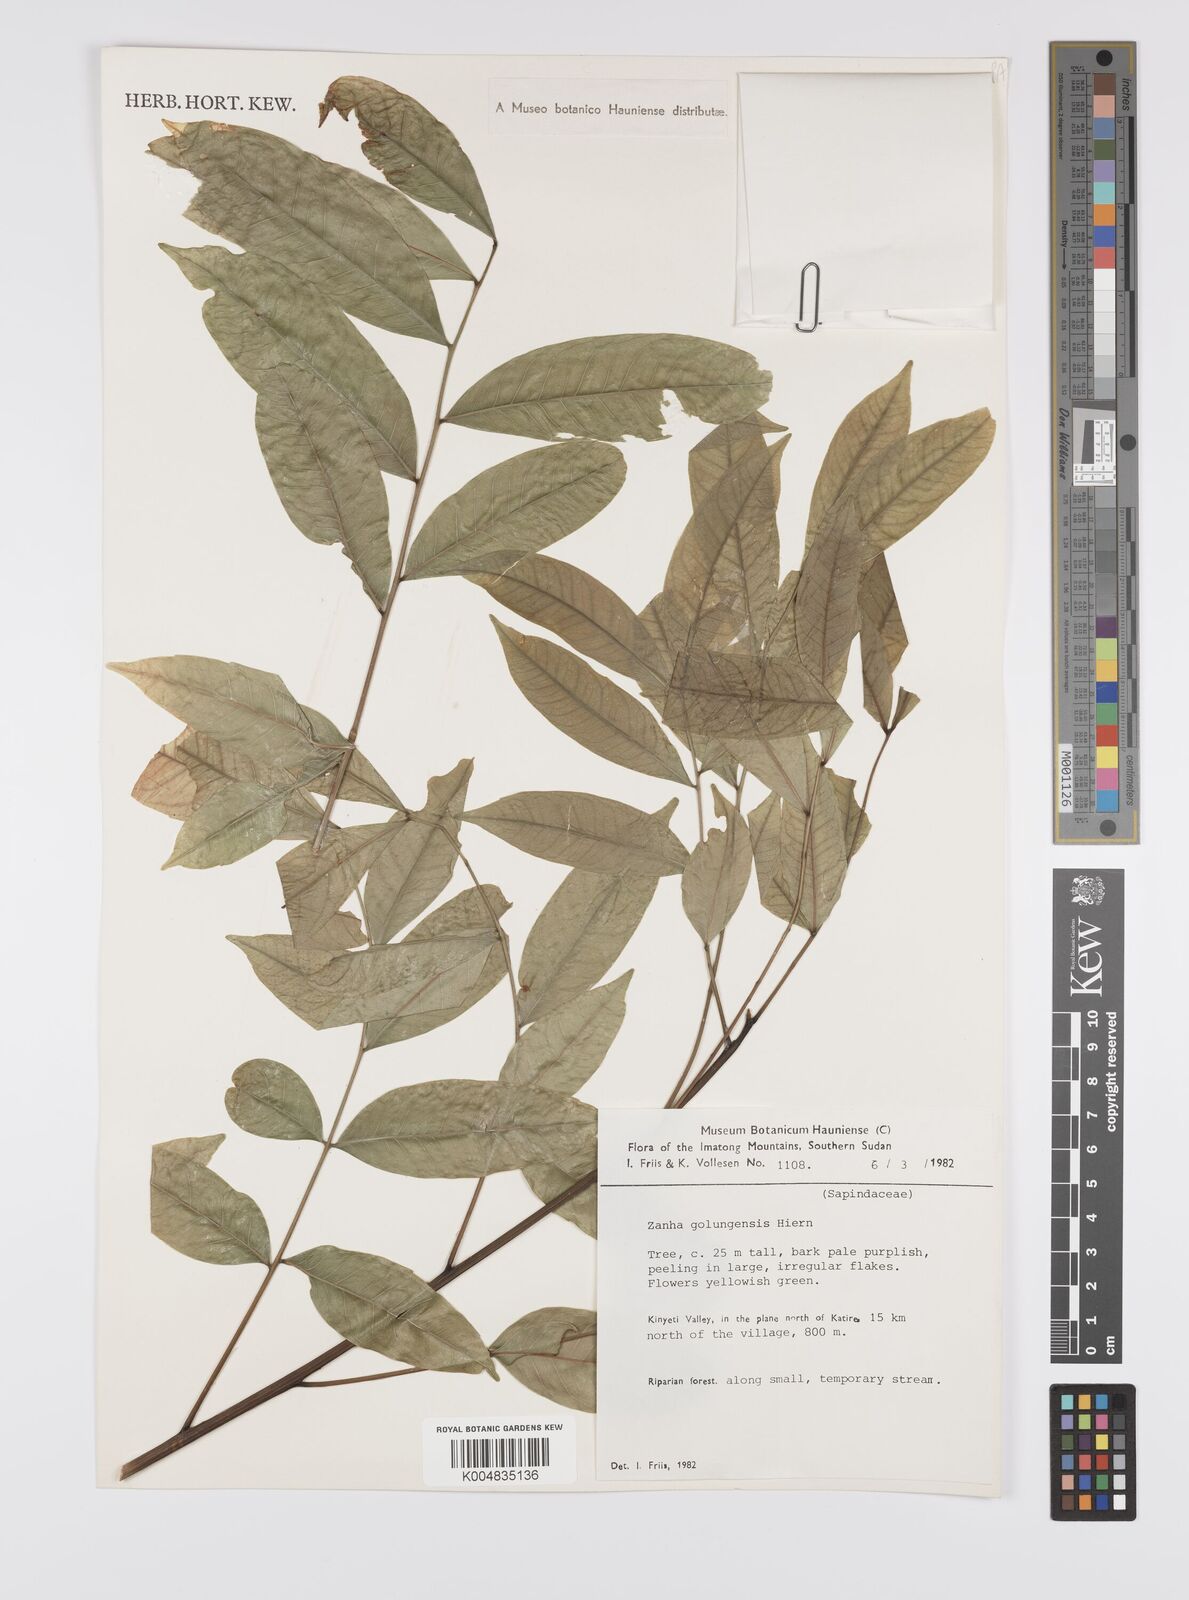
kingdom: Plantae
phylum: Tracheophyta
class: Magnoliopsida
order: Sapindales
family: Sapindaceae
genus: Zanha
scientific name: Zanha golungensis
